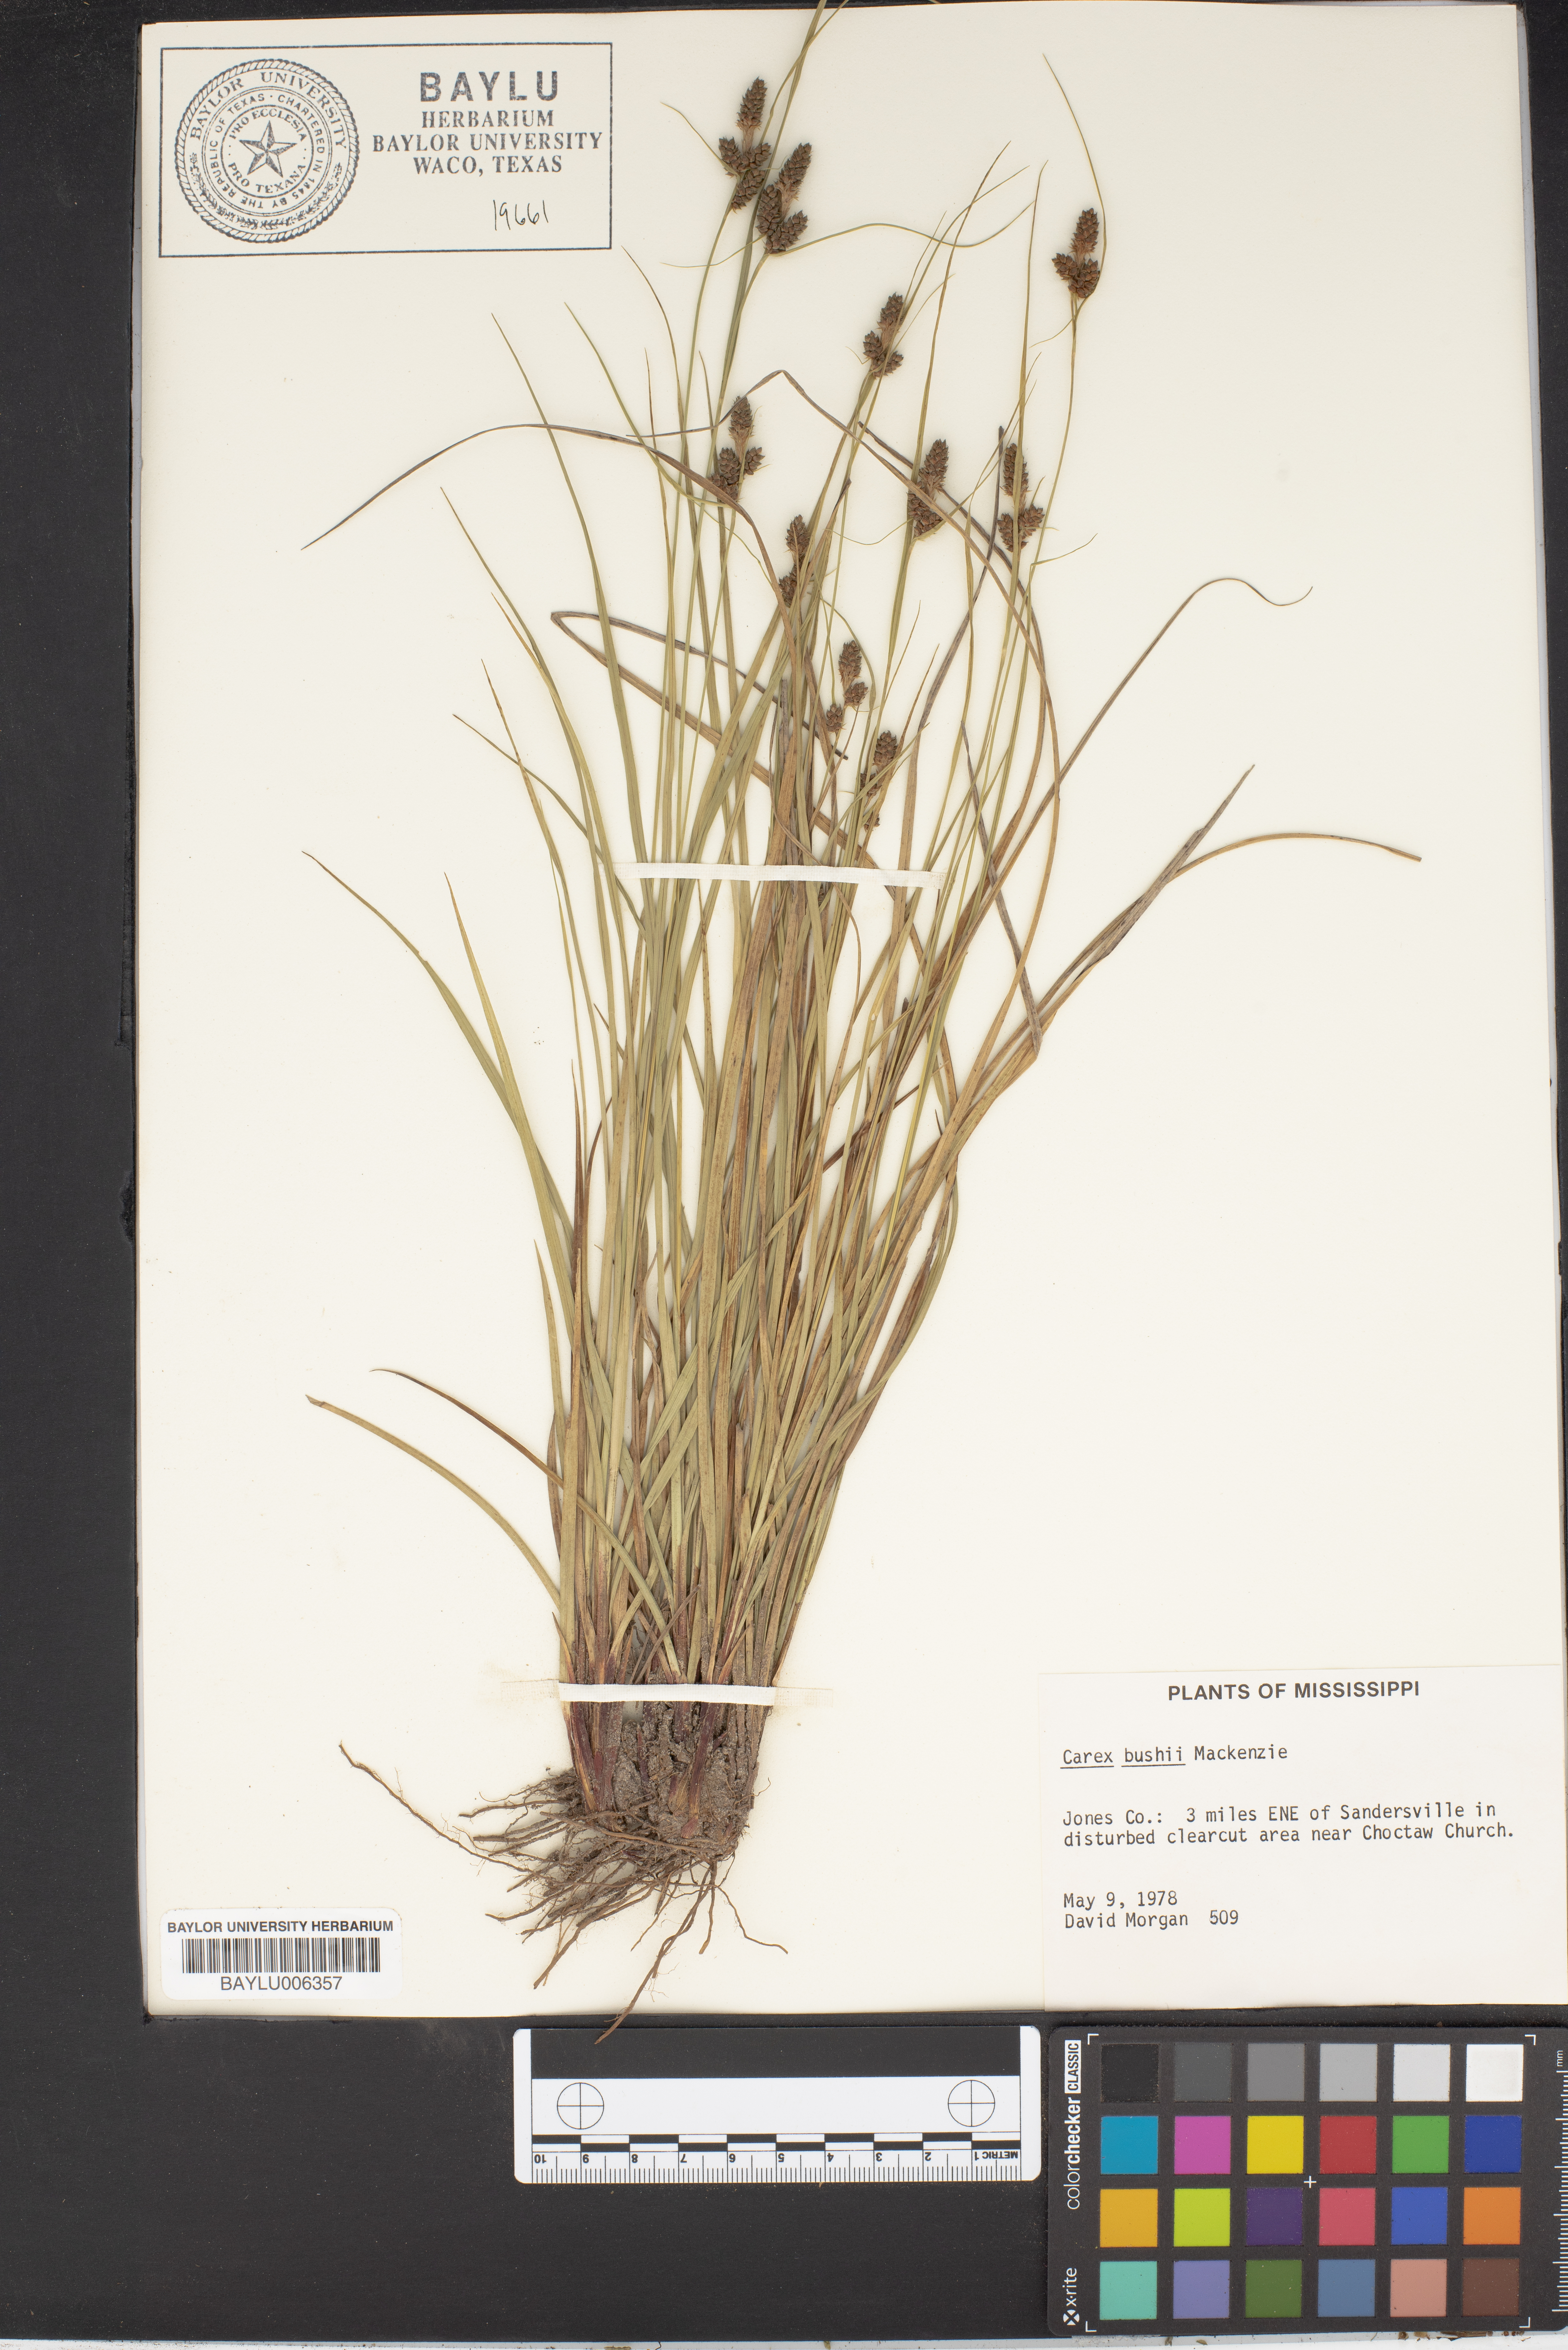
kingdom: Plantae
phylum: Tracheophyta
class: Liliopsida
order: Poales
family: Cyperaceae
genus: Carex
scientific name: Carex bushii
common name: Bush's sedge
